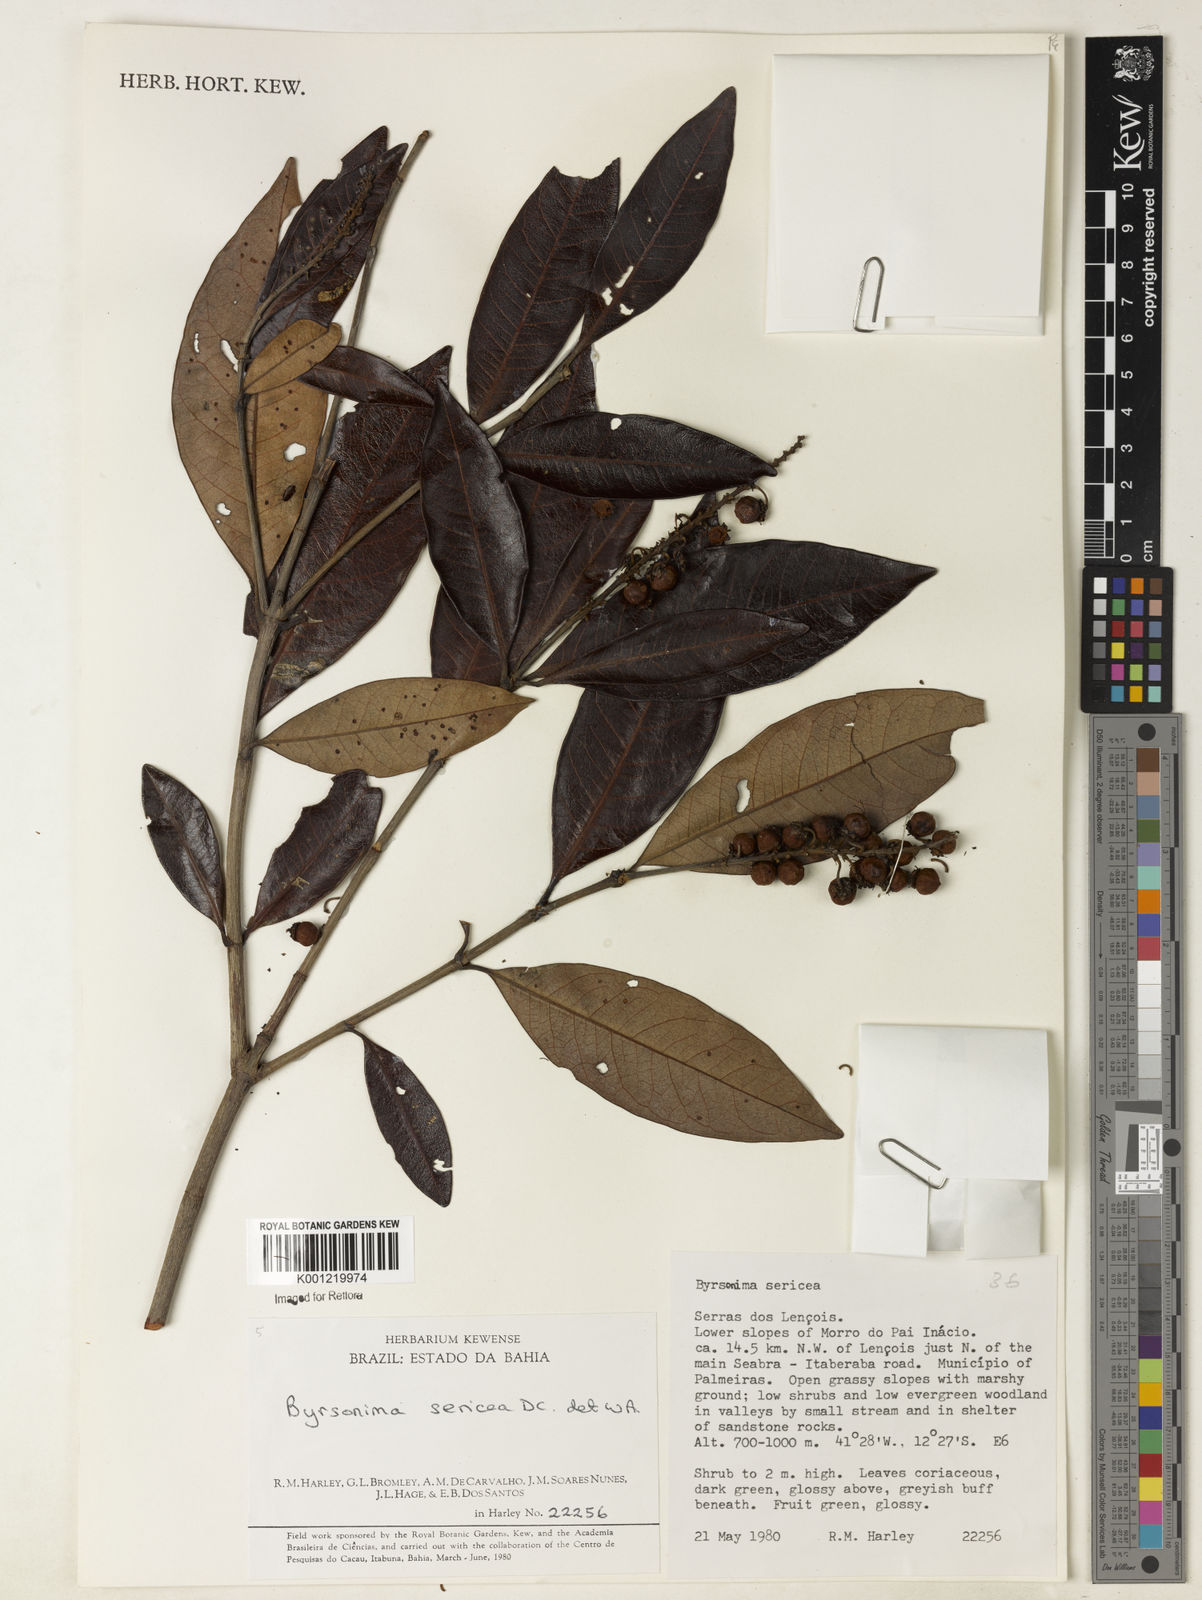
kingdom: Plantae
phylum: Tracheophyta
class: Magnoliopsida
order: Malpighiales
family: Malpighiaceae
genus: Byrsonima
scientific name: Byrsonima sericea
